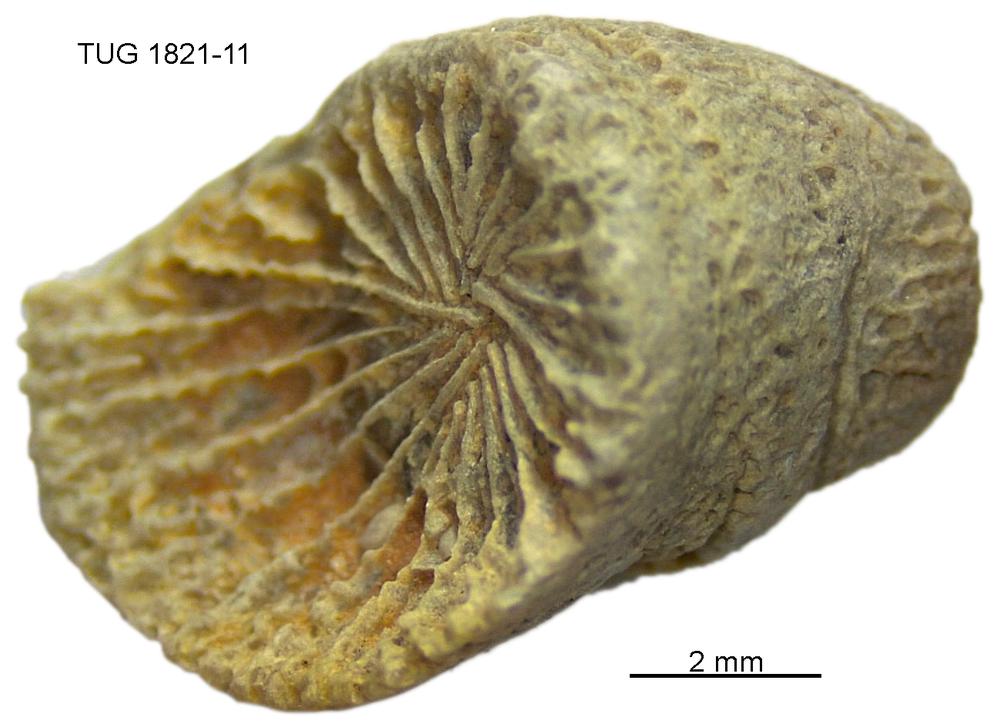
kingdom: Animalia
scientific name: Animalia
